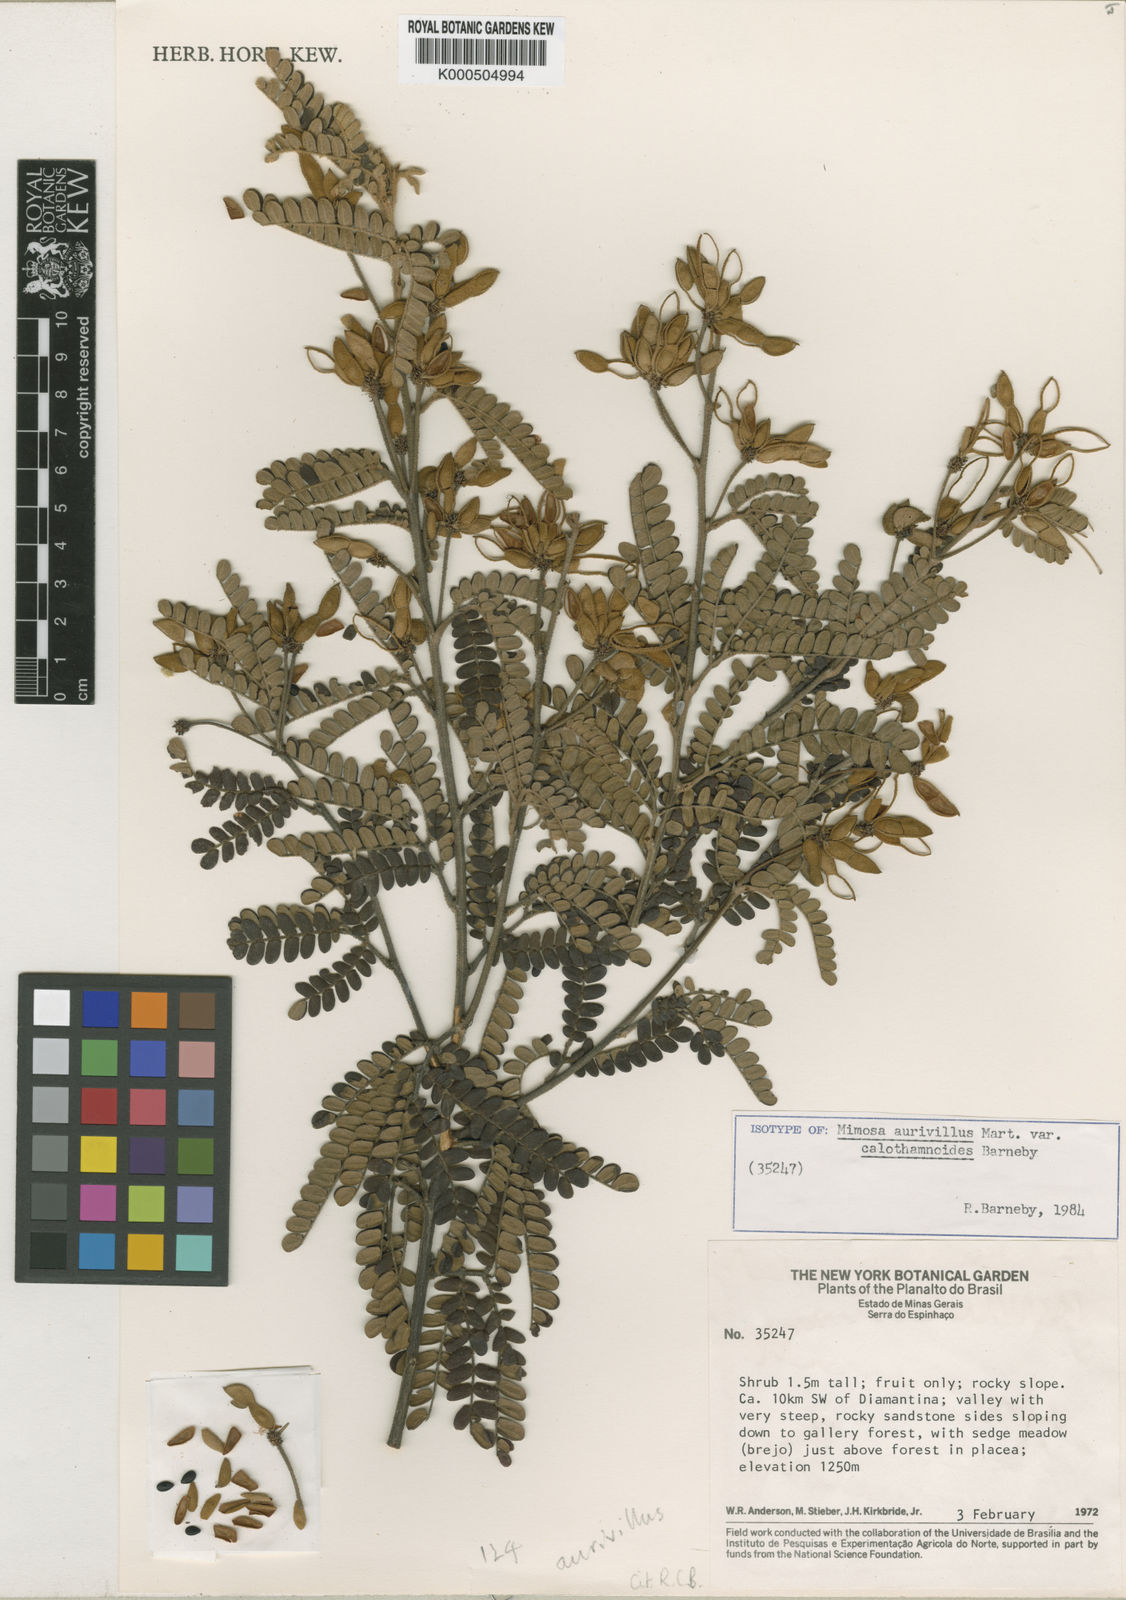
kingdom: Plantae
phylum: Tracheophyta
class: Magnoliopsida
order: Fabales
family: Fabaceae
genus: Mimosa
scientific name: Mimosa aurivillus
